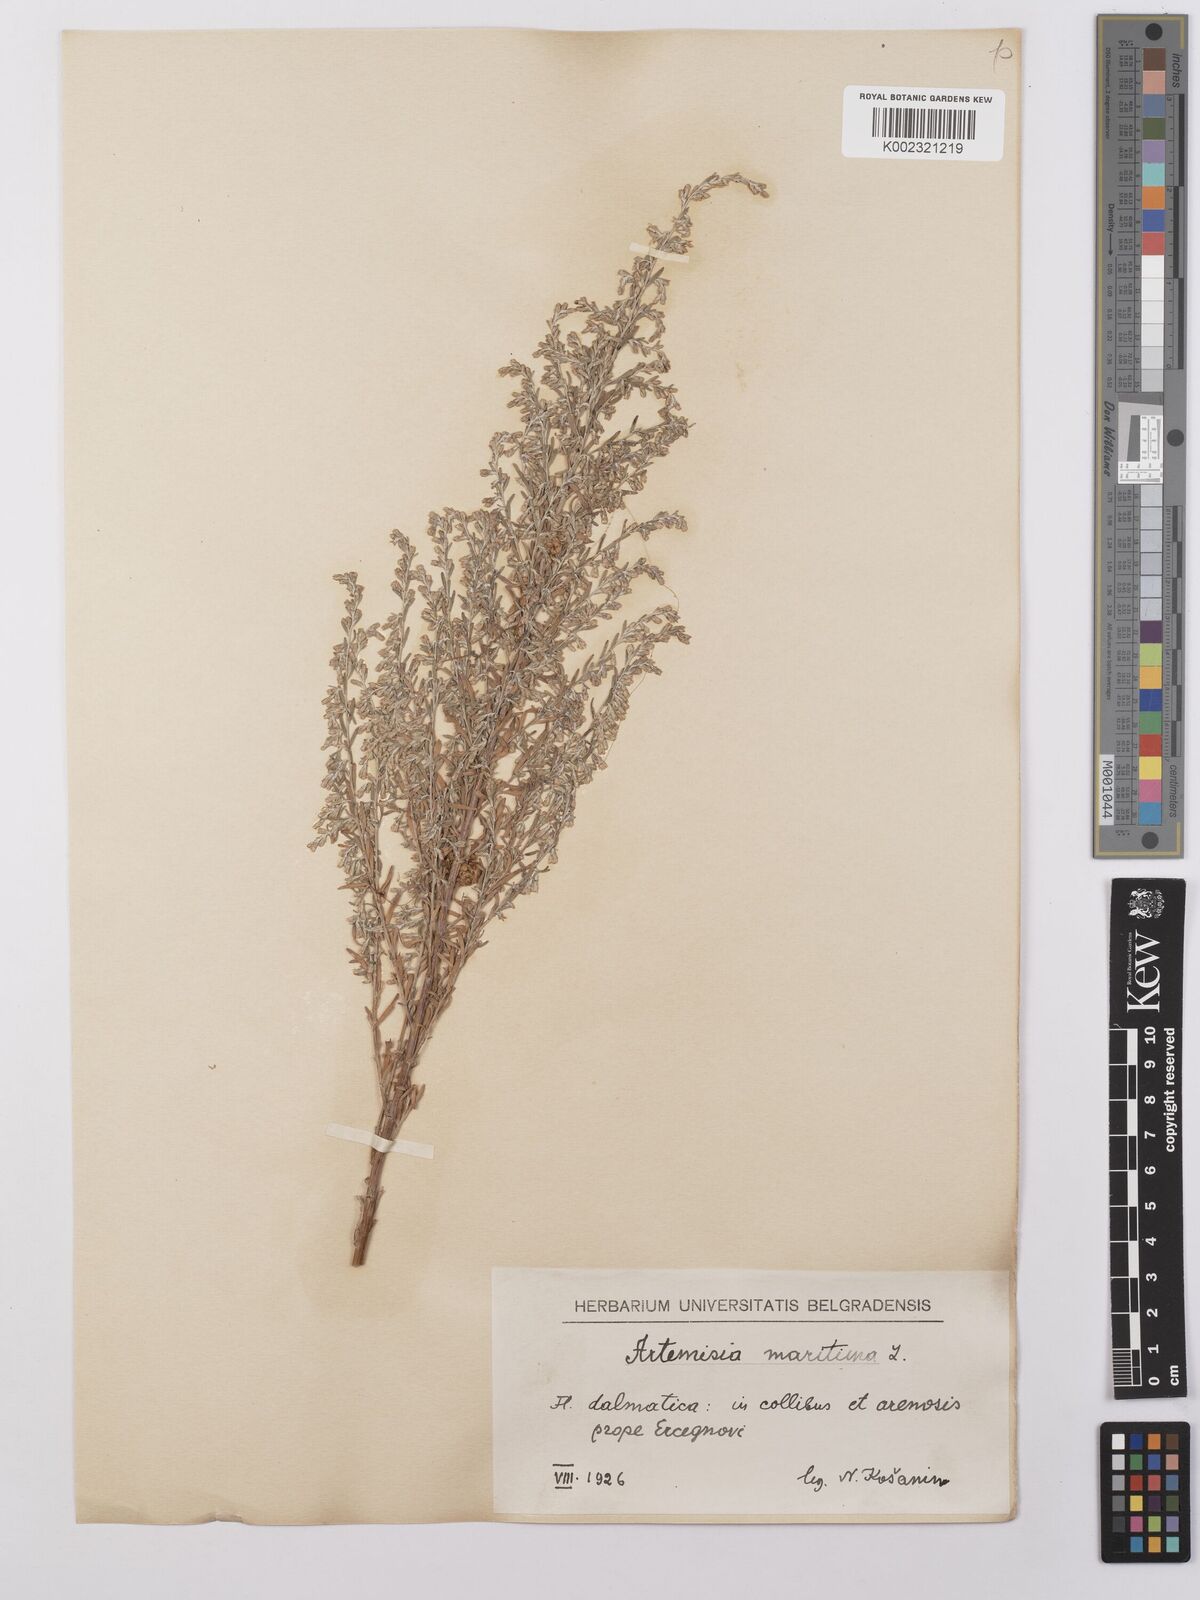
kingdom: Plantae
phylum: Tracheophyta
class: Magnoliopsida
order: Asterales
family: Asteraceae
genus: Artemisia
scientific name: Artemisia maritima
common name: Wormseed
